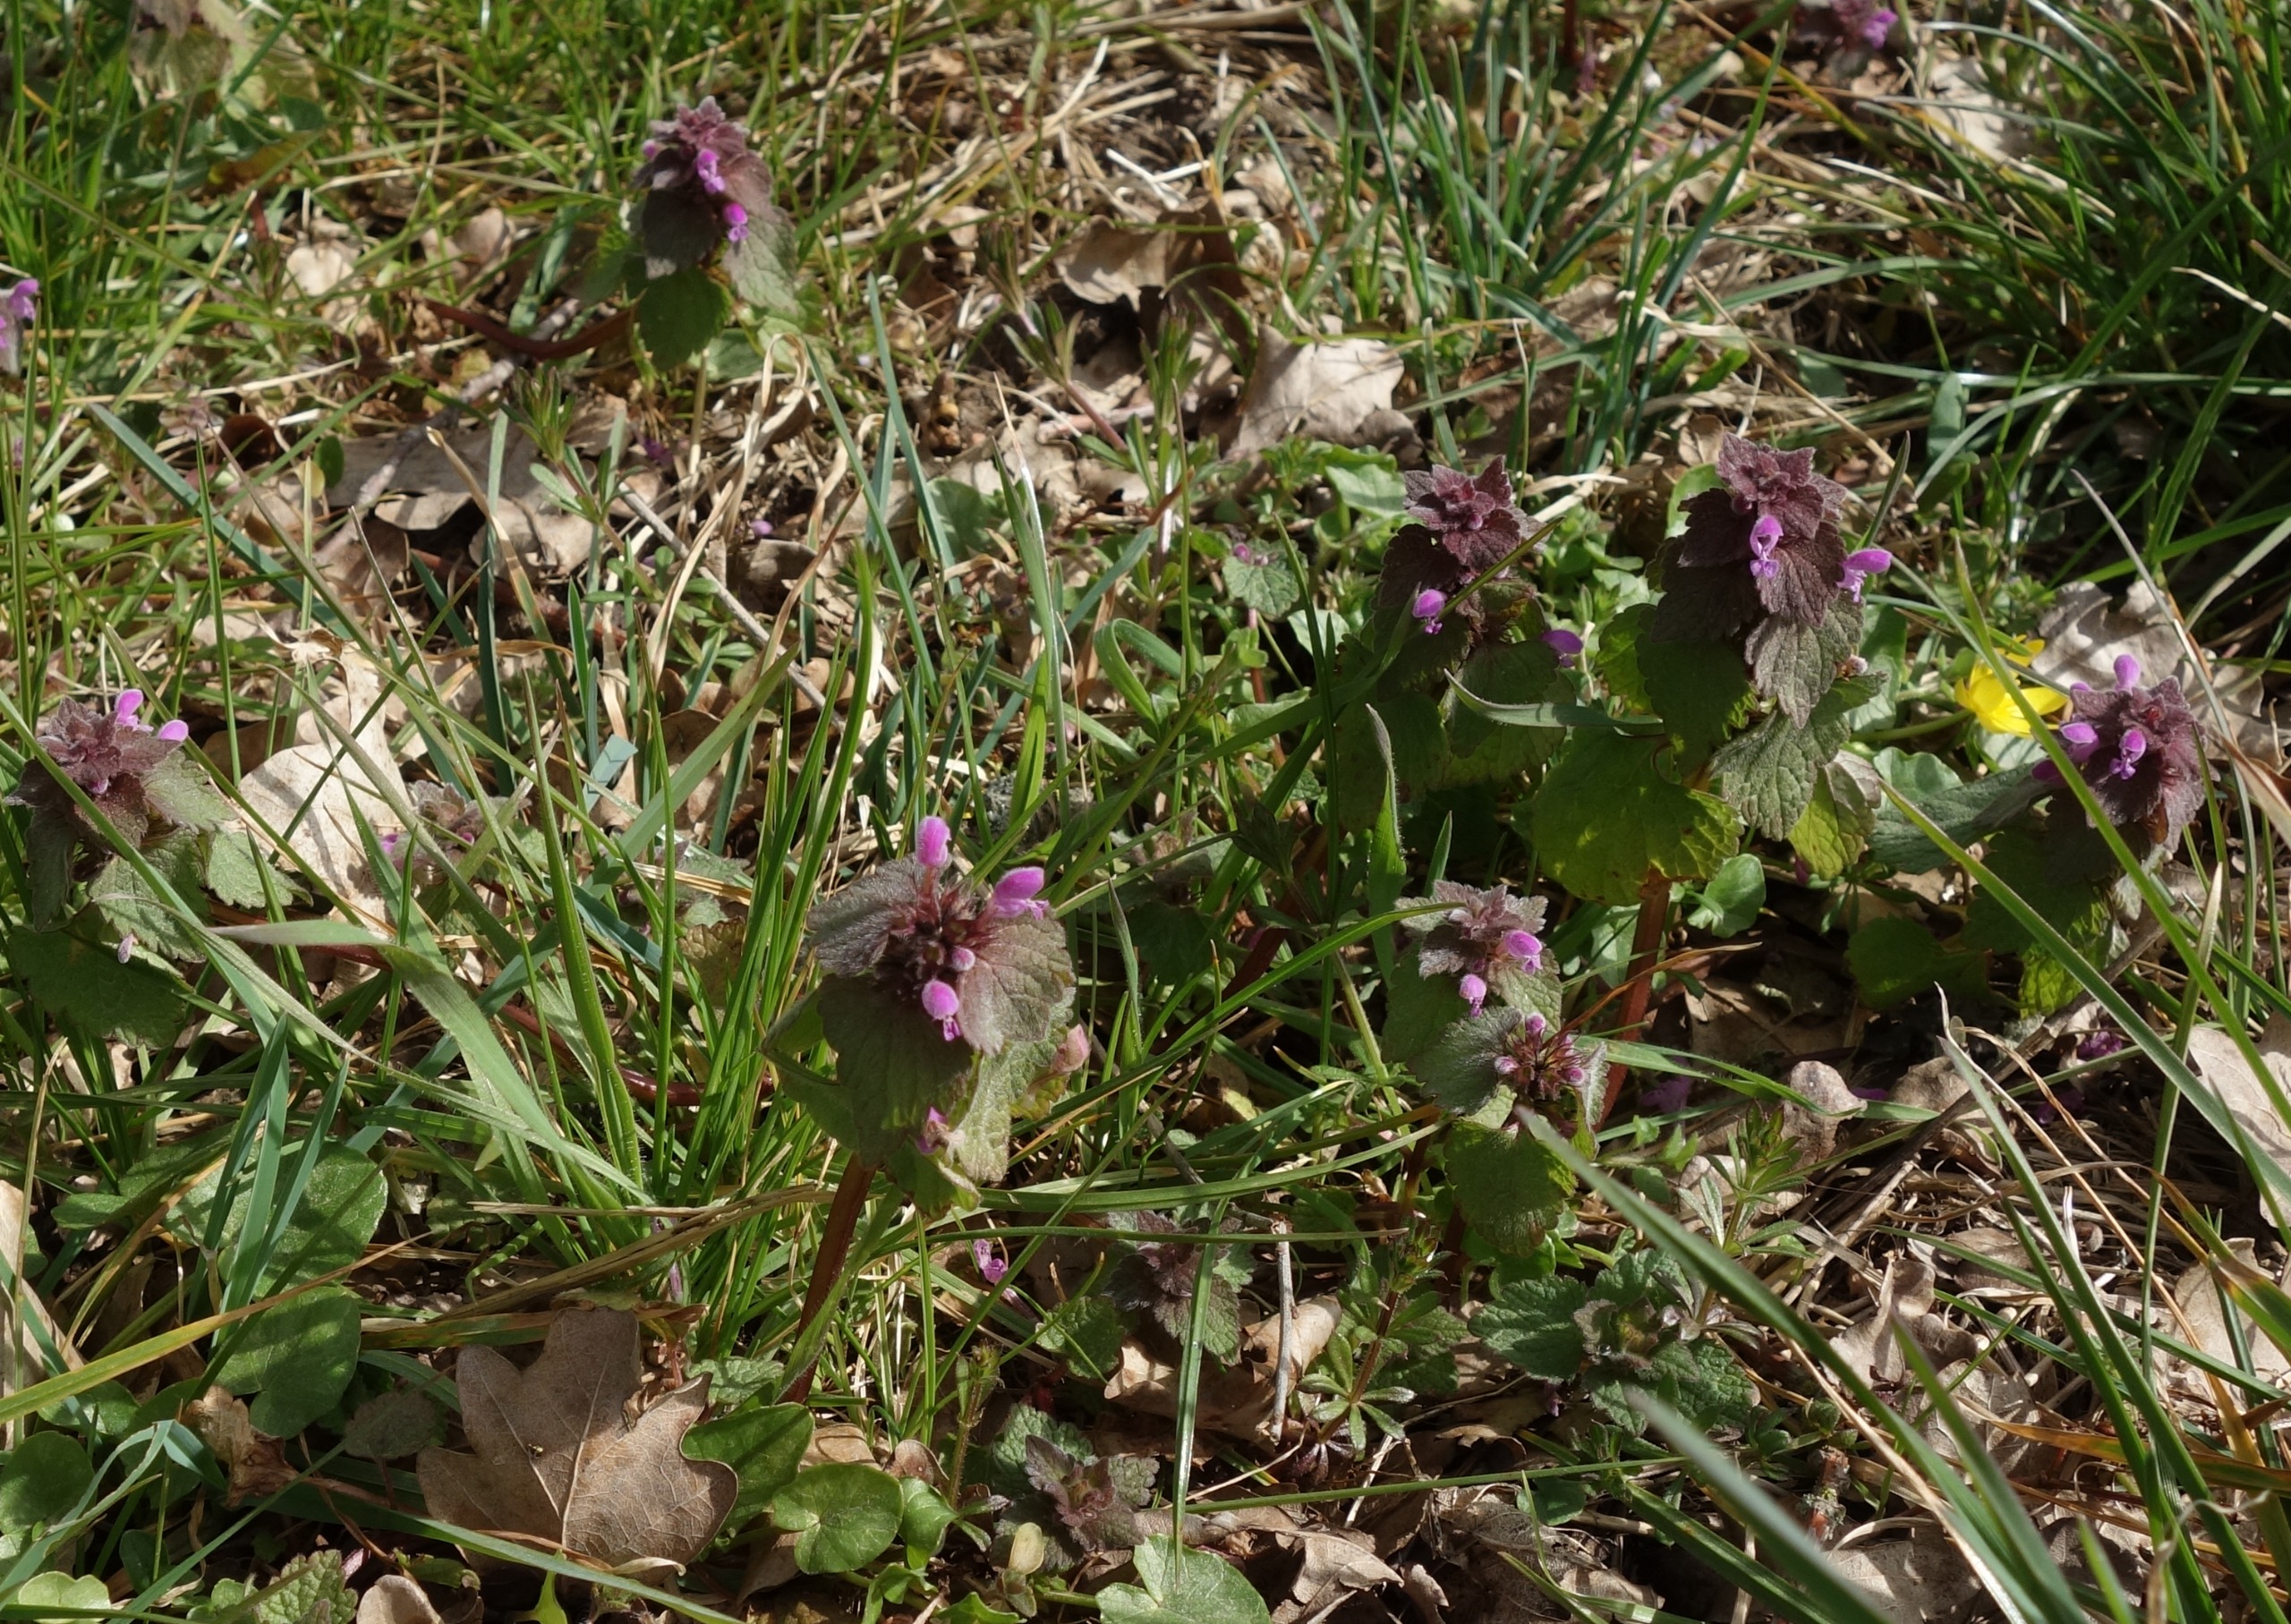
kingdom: Plantae
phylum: Tracheophyta
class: Magnoliopsida
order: Lamiales
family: Lamiaceae
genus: Lamium
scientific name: Lamium purpureum
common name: Rød tvetand
